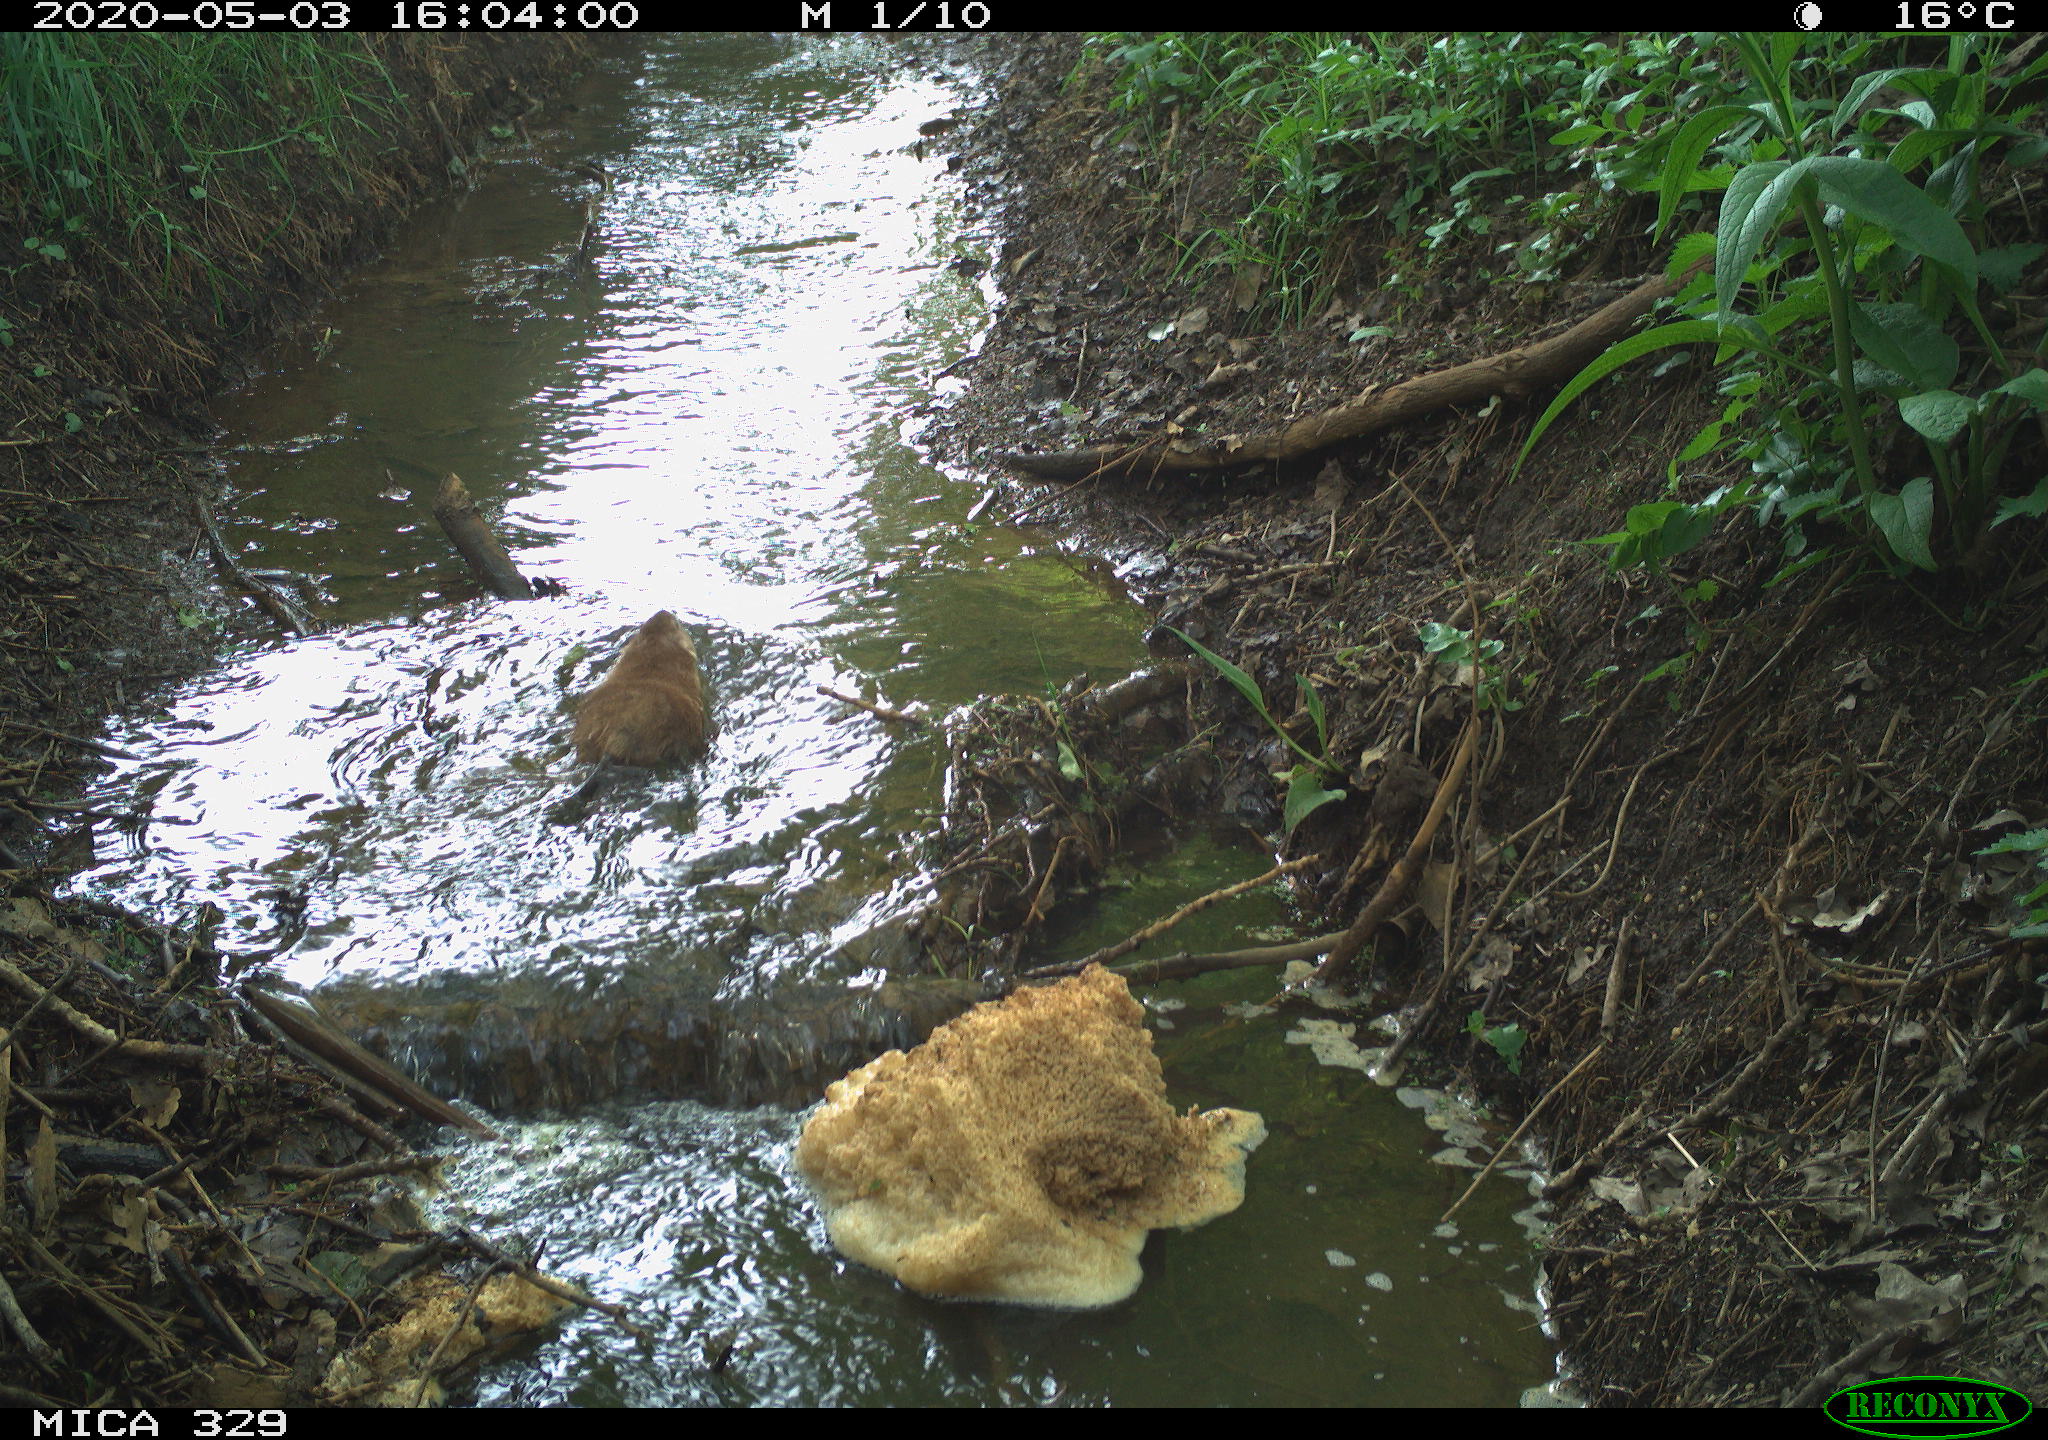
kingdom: Animalia
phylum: Chordata
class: Mammalia
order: Rodentia
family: Cricetidae
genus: Ondatra
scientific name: Ondatra zibethicus
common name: Muskrat
